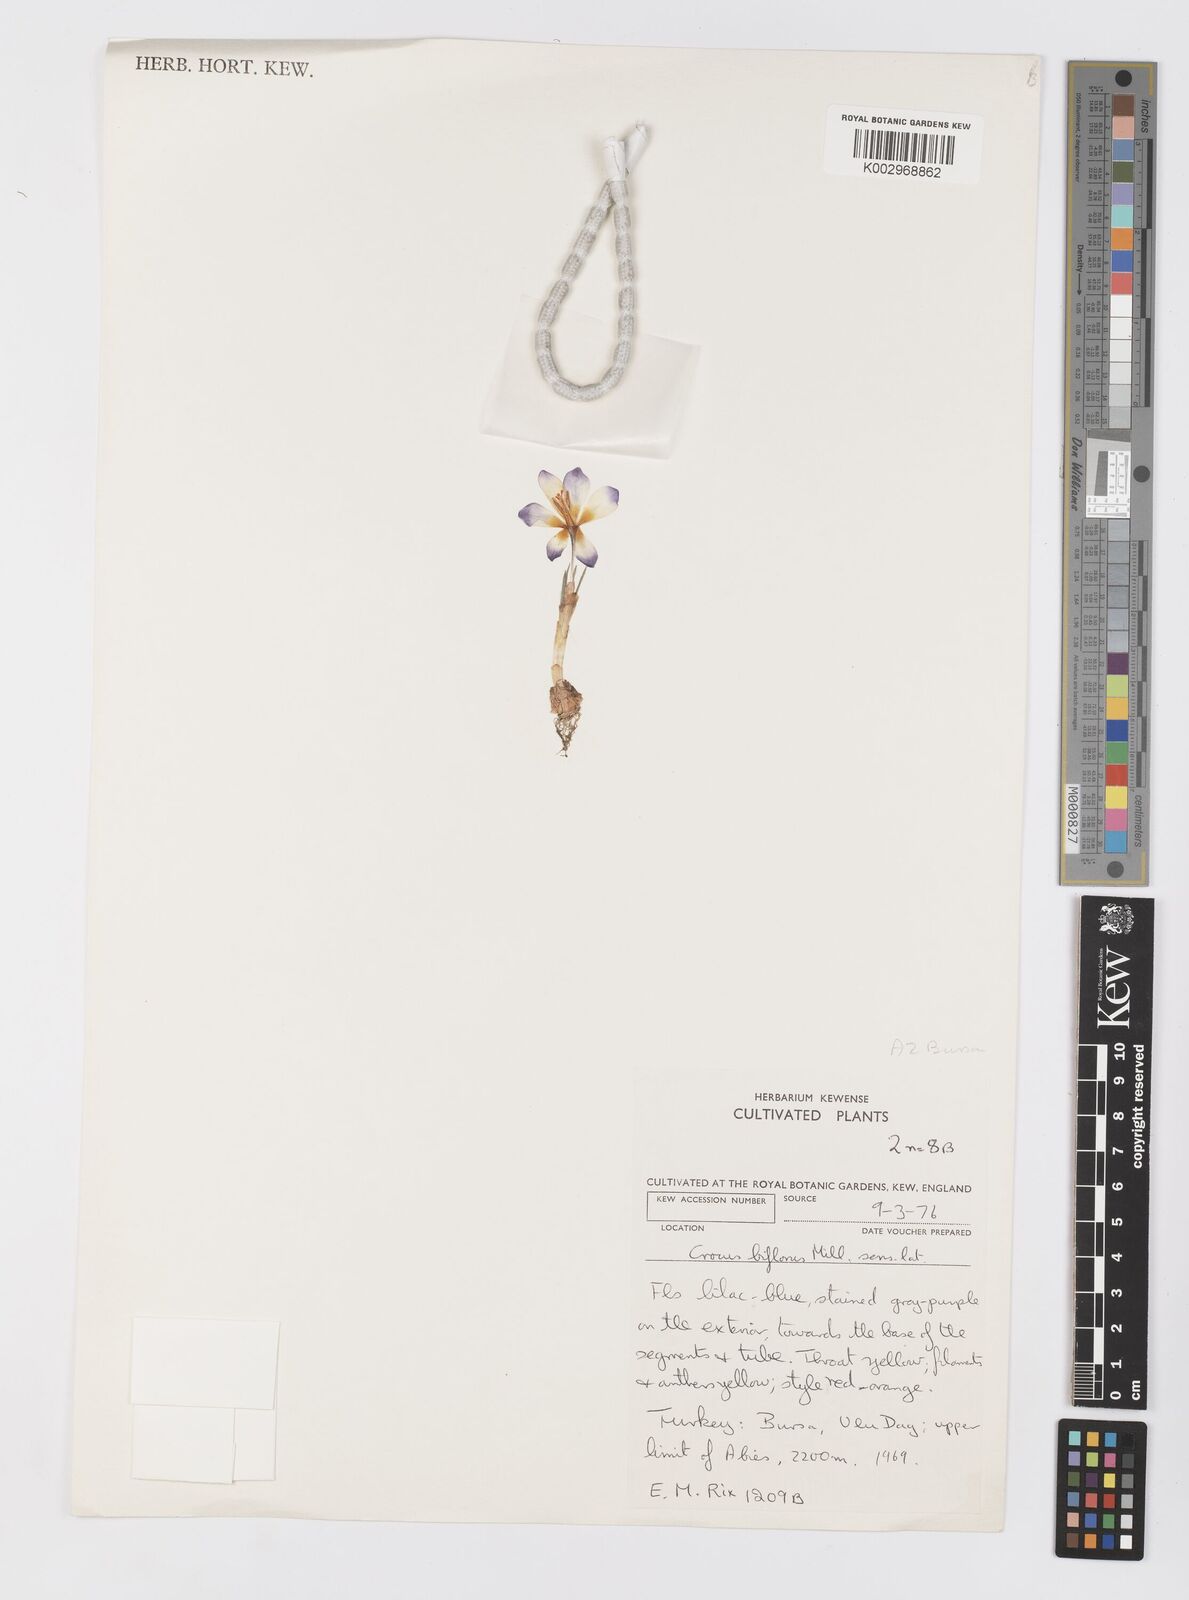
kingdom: Plantae
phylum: Tracheophyta
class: Liliopsida
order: Asparagales
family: Iridaceae
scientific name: Iridaceae
